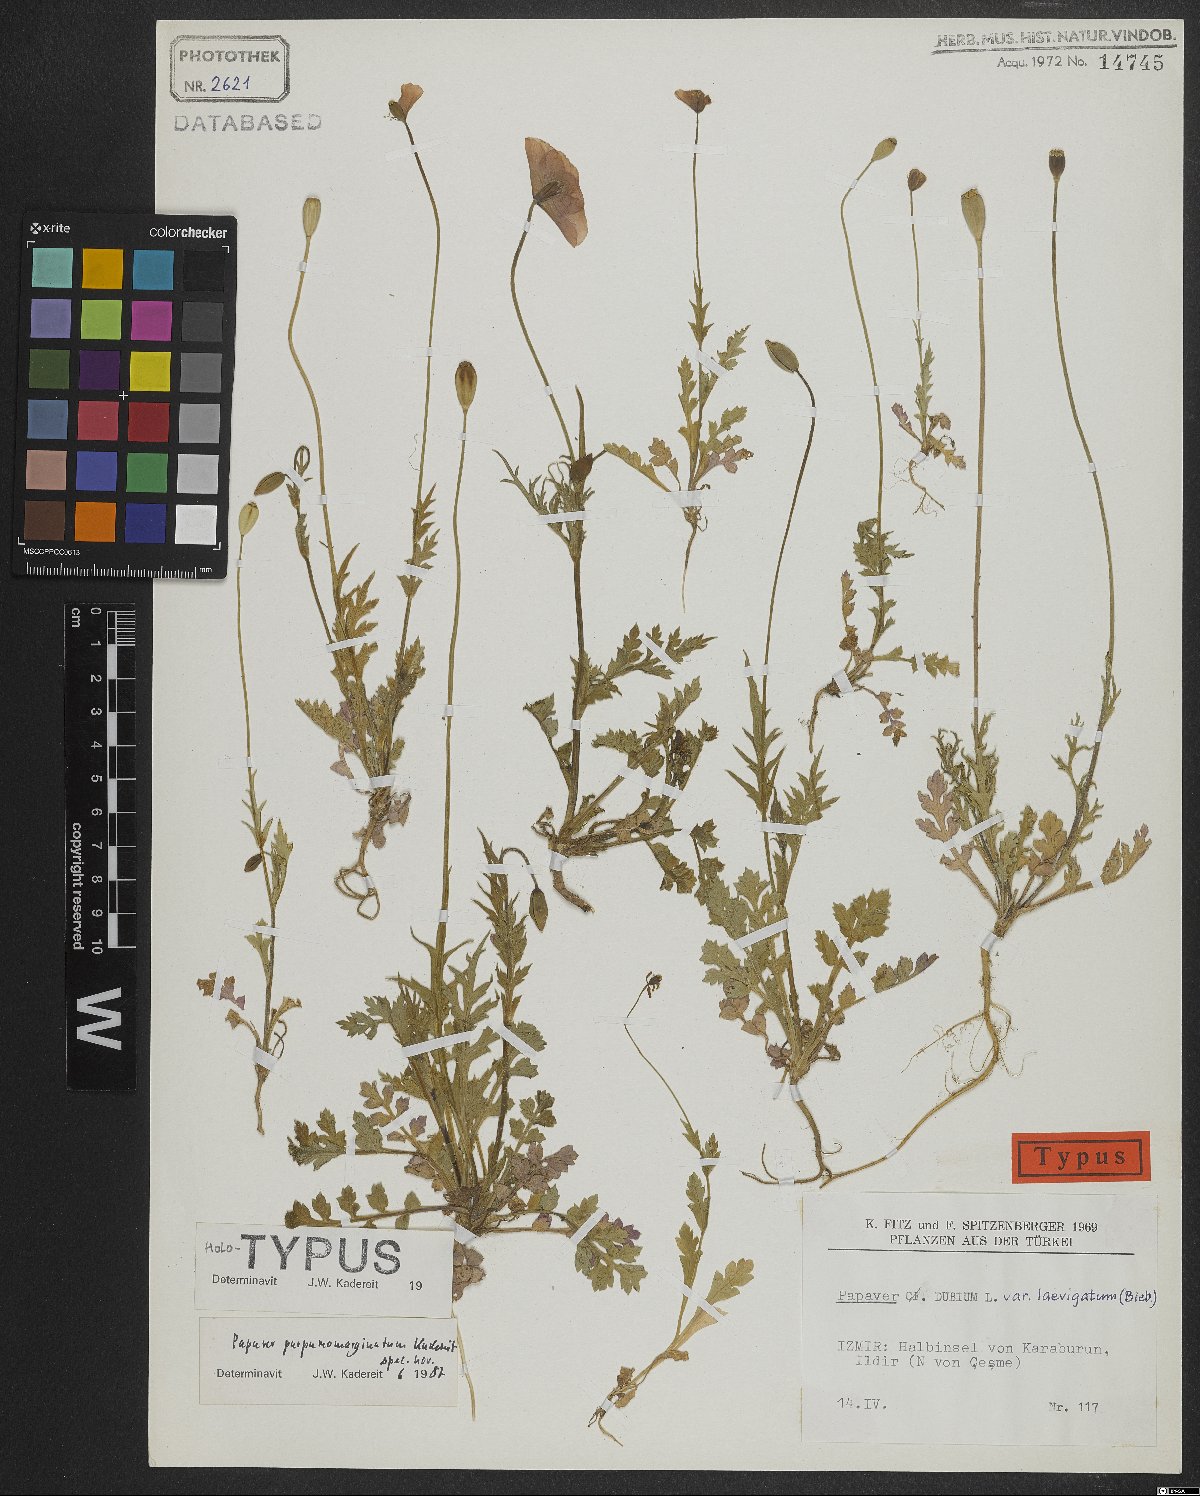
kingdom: Plantae
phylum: Tracheophyta
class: Magnoliopsida
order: Ranunculales
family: Papaveraceae
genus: Papaver
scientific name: Papaver purpureomarginatum
